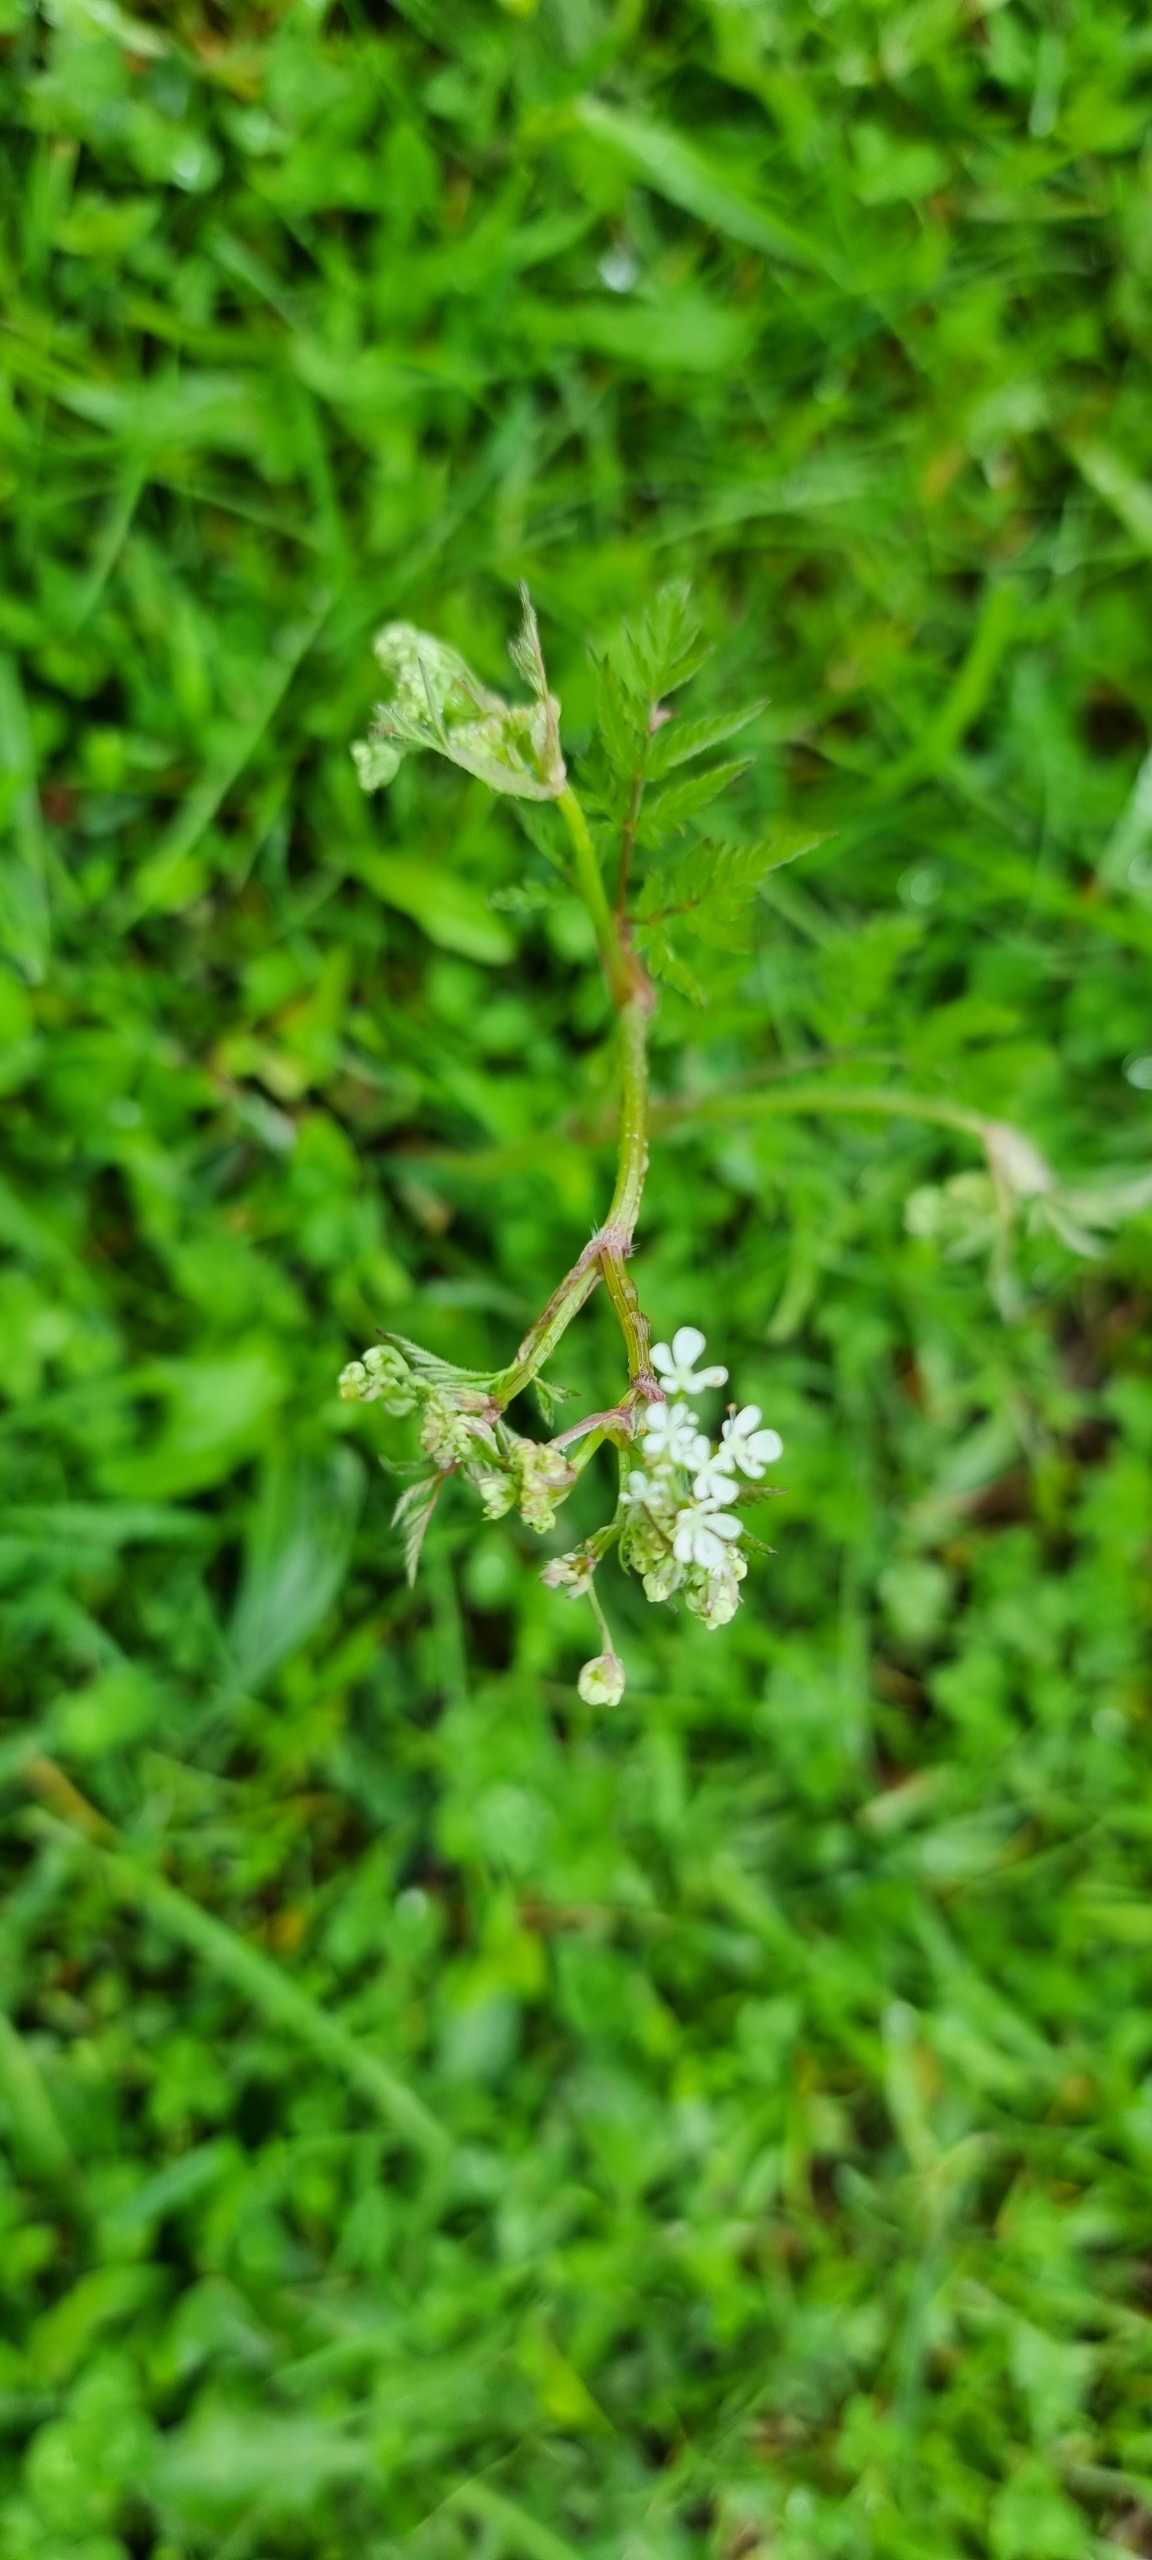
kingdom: Plantae
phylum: Tracheophyta
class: Magnoliopsida
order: Apiales
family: Apiaceae
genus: Anthriscus
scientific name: Anthriscus sylvestris
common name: Vild kørvel
